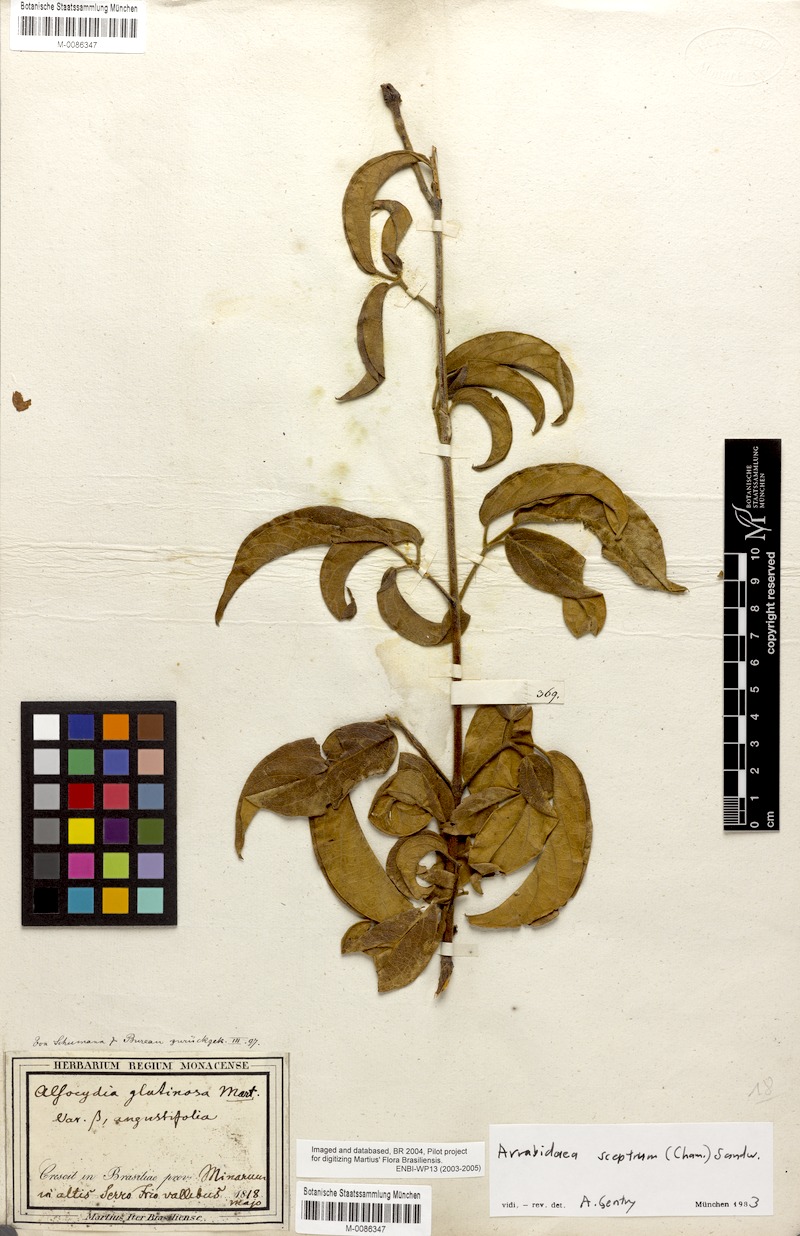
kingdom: Plantae
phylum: Tracheophyta
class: Magnoliopsida
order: Lamiales
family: Bignoniaceae
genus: Cuspidaria
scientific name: Cuspidaria sceptrum
